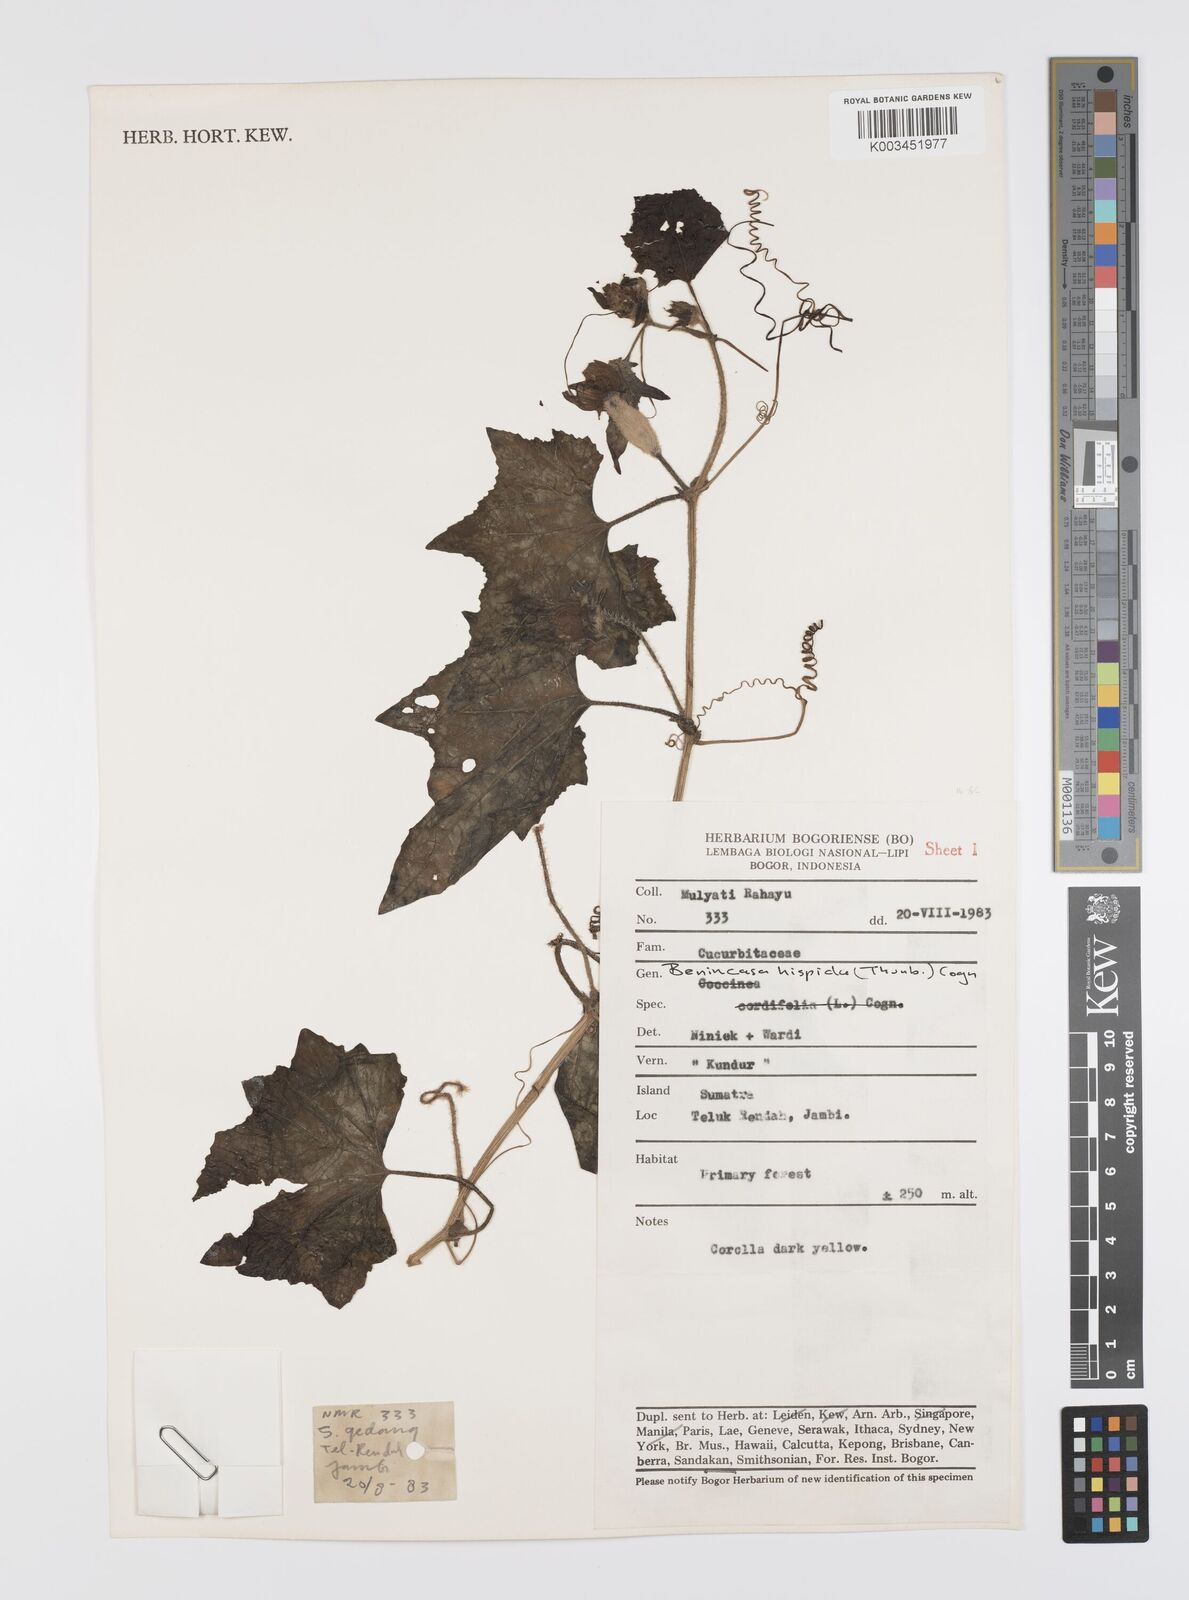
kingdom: Plantae
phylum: Tracheophyta
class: Magnoliopsida
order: Cucurbitales
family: Cucurbitaceae
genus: Benincasa
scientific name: Benincasa hispida
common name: Chinese-watermelon
